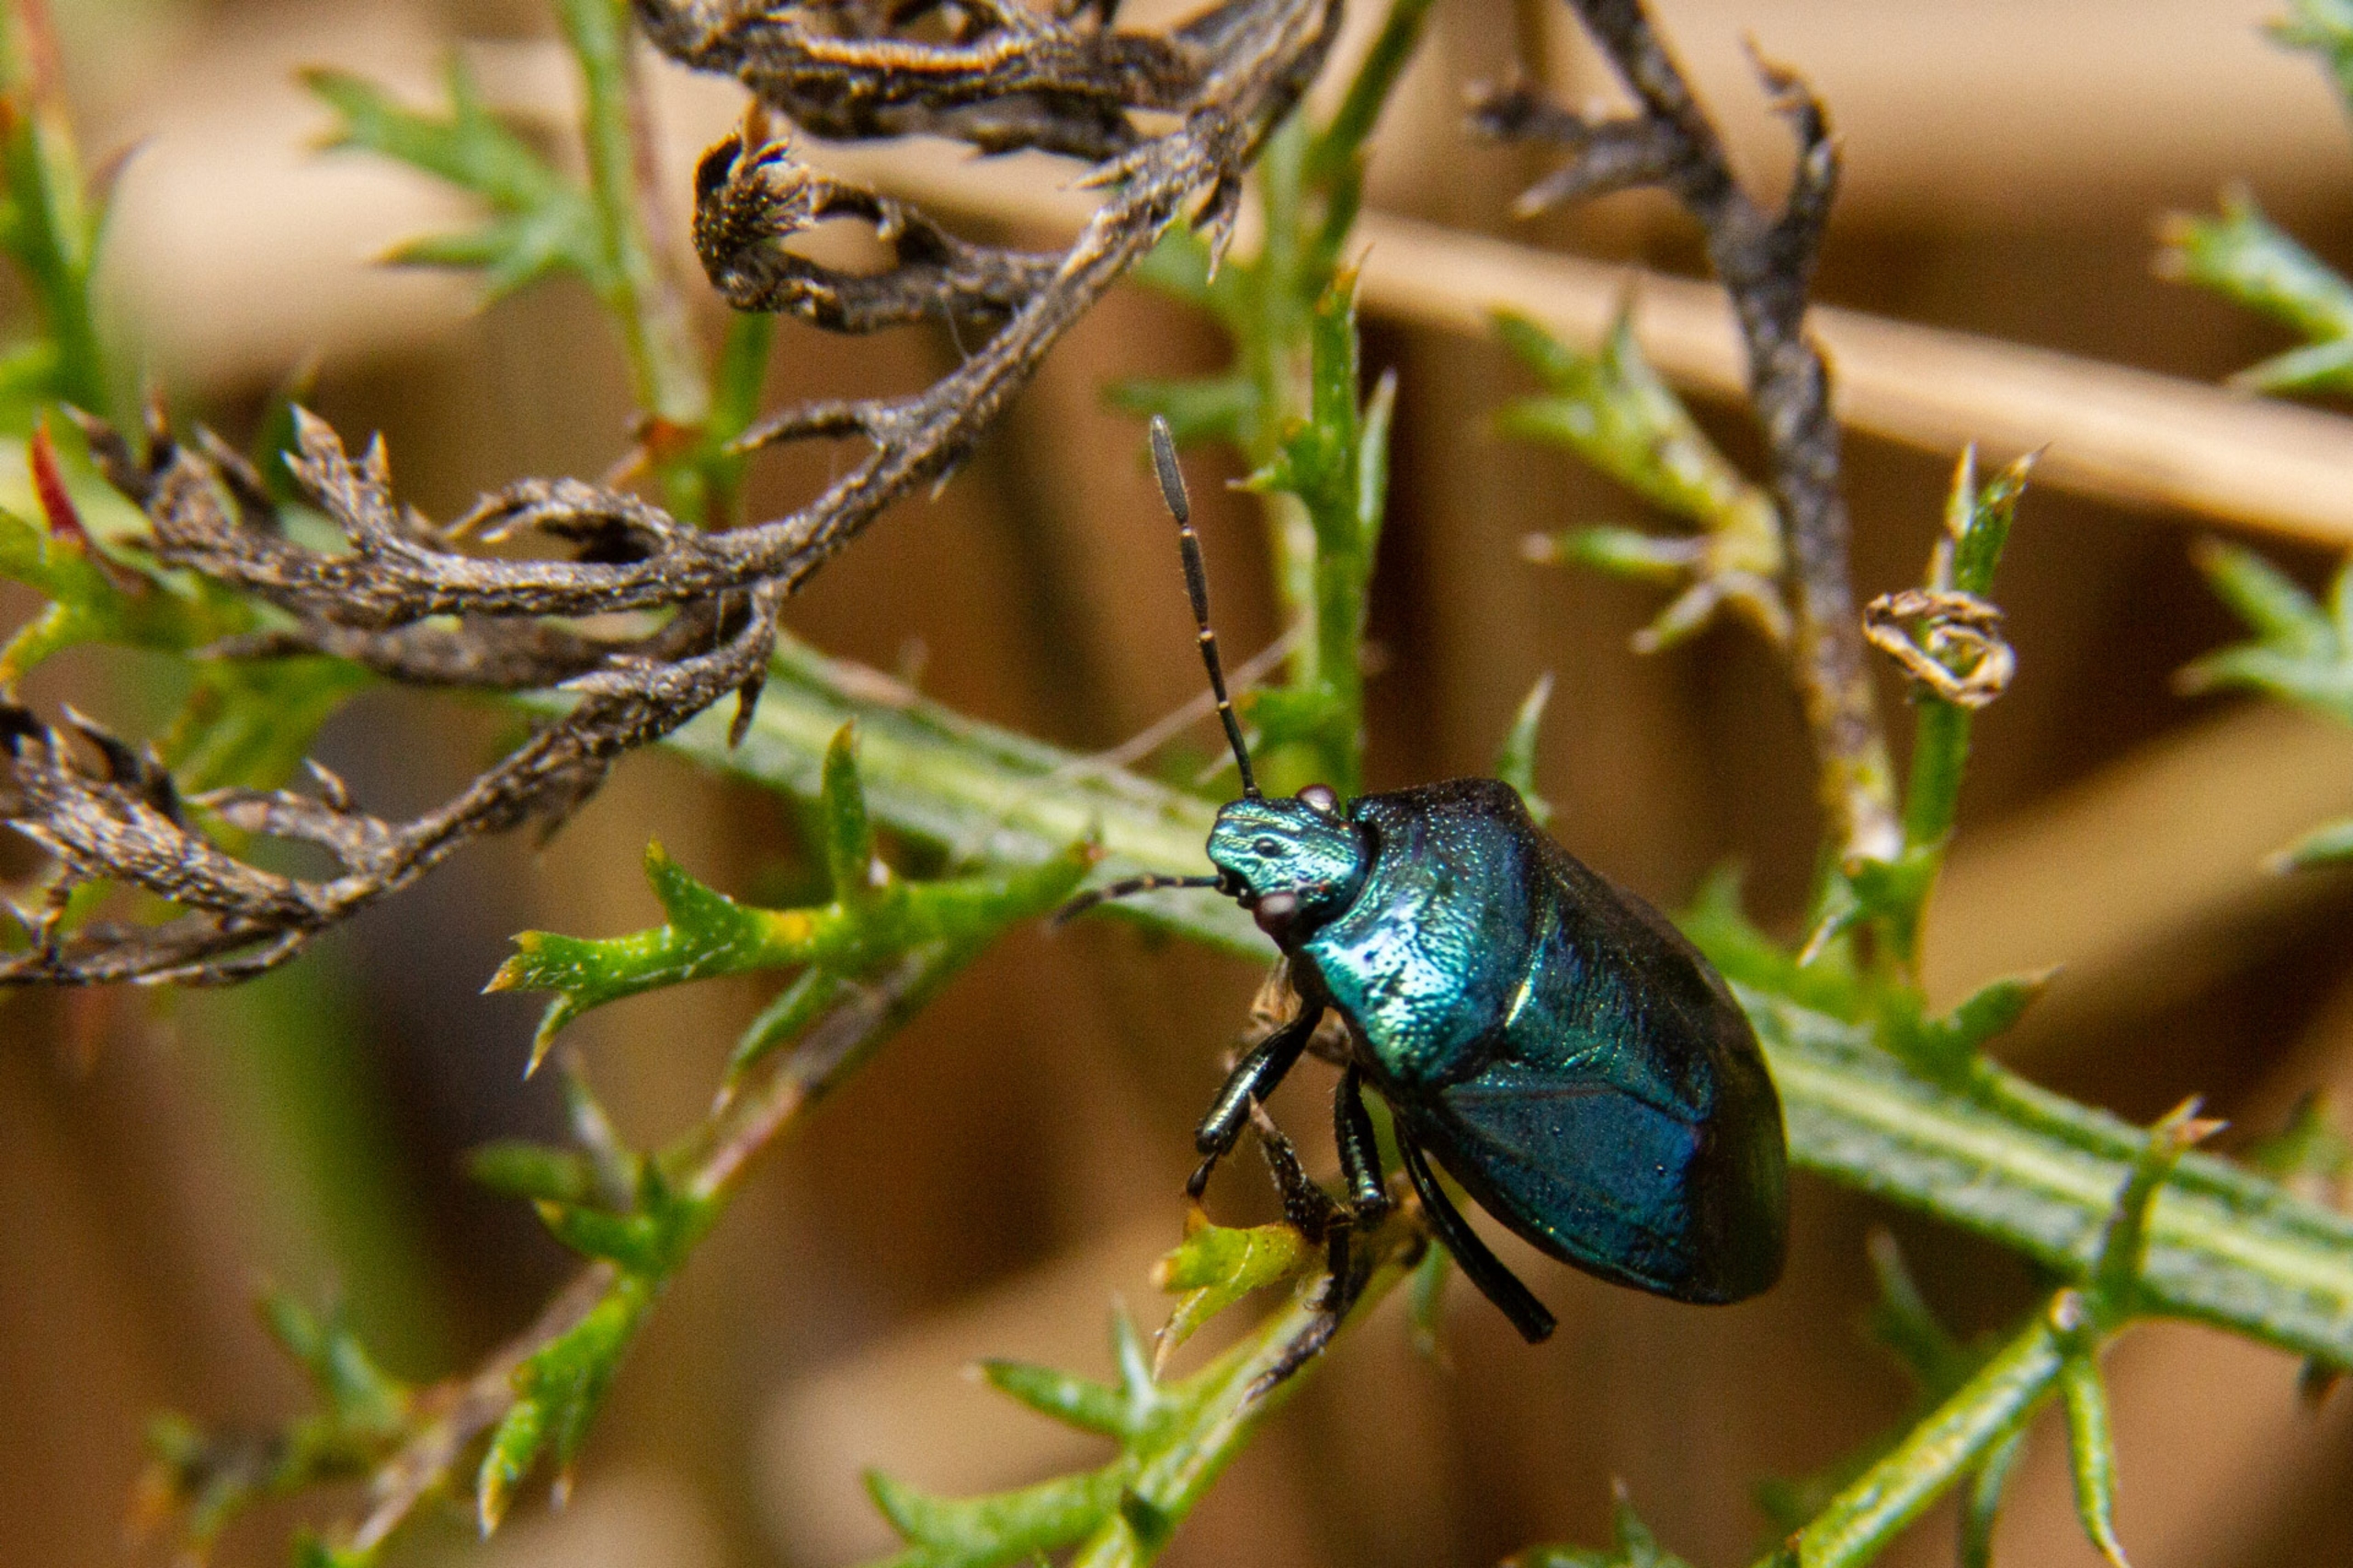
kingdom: Animalia
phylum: Arthropoda
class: Insecta
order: Hemiptera
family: Pentatomidae
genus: Zicrona
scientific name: Zicrona caerulea
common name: Blå bredtæge
